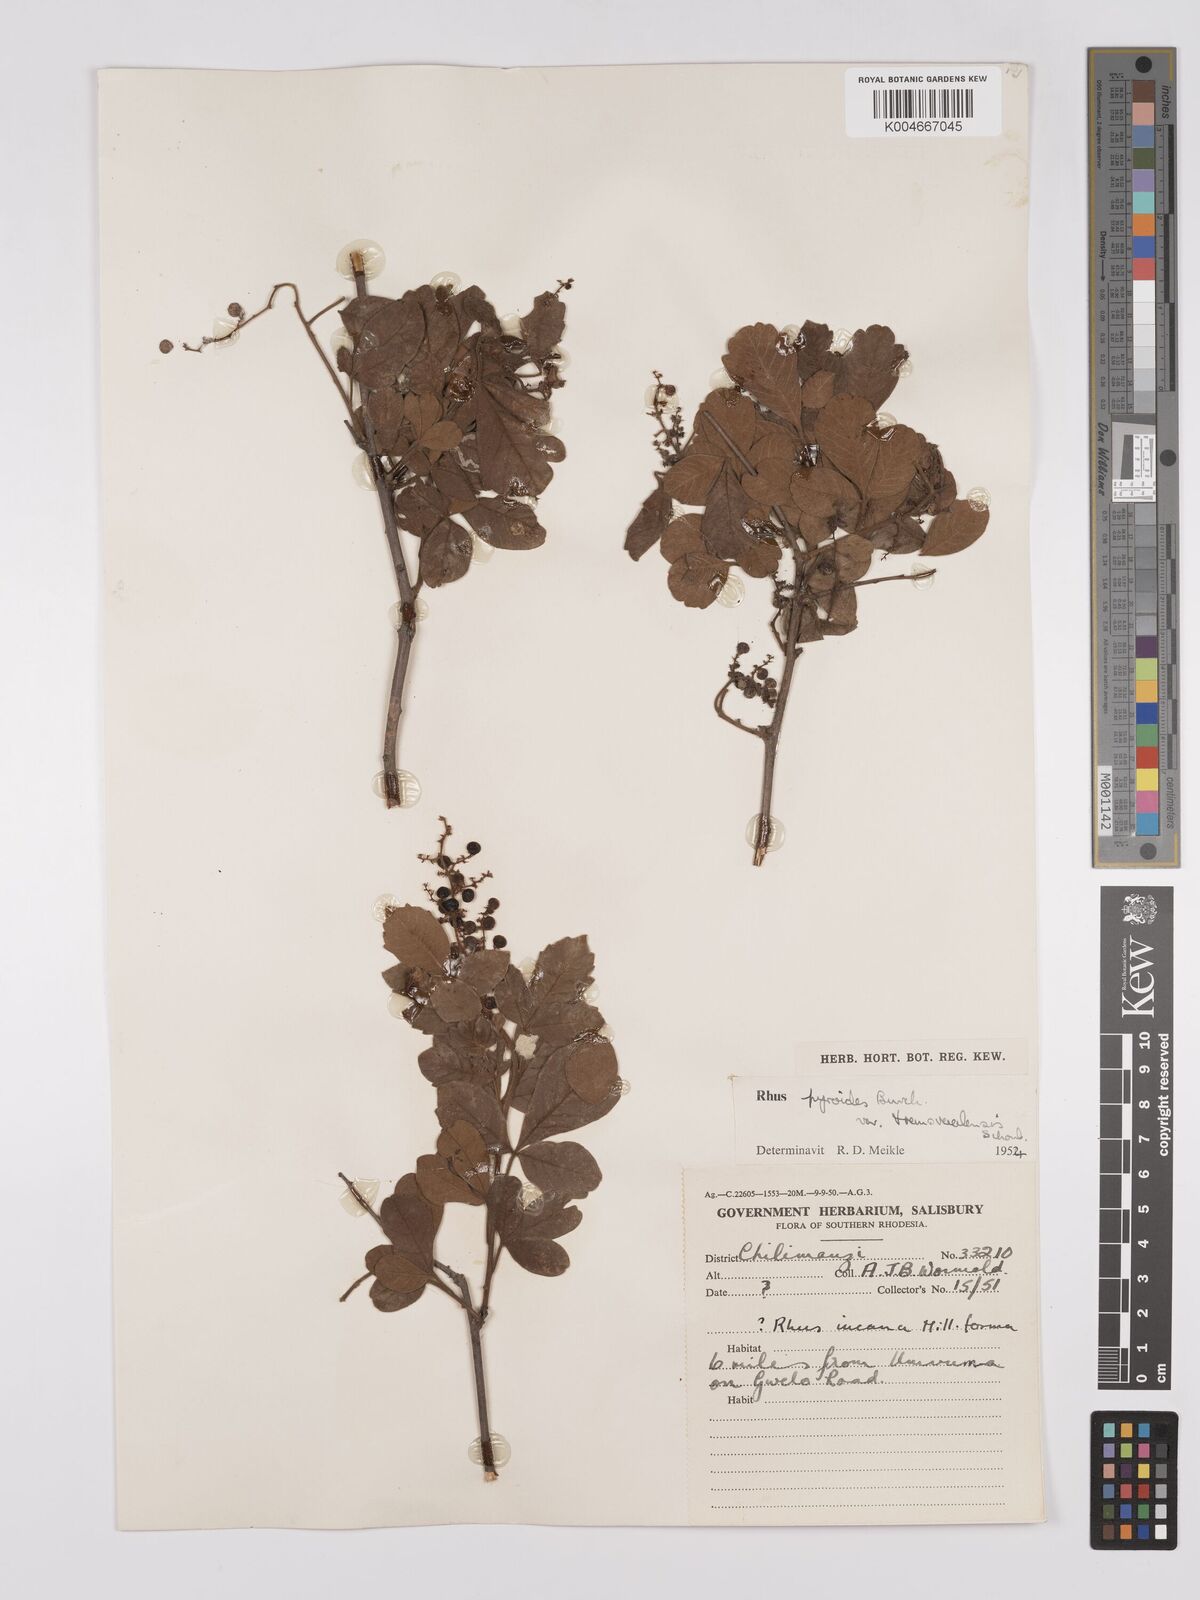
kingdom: Plantae
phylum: Tracheophyta
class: Magnoliopsida
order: Sapindales
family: Anacardiaceae
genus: Rhus
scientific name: Rhus
